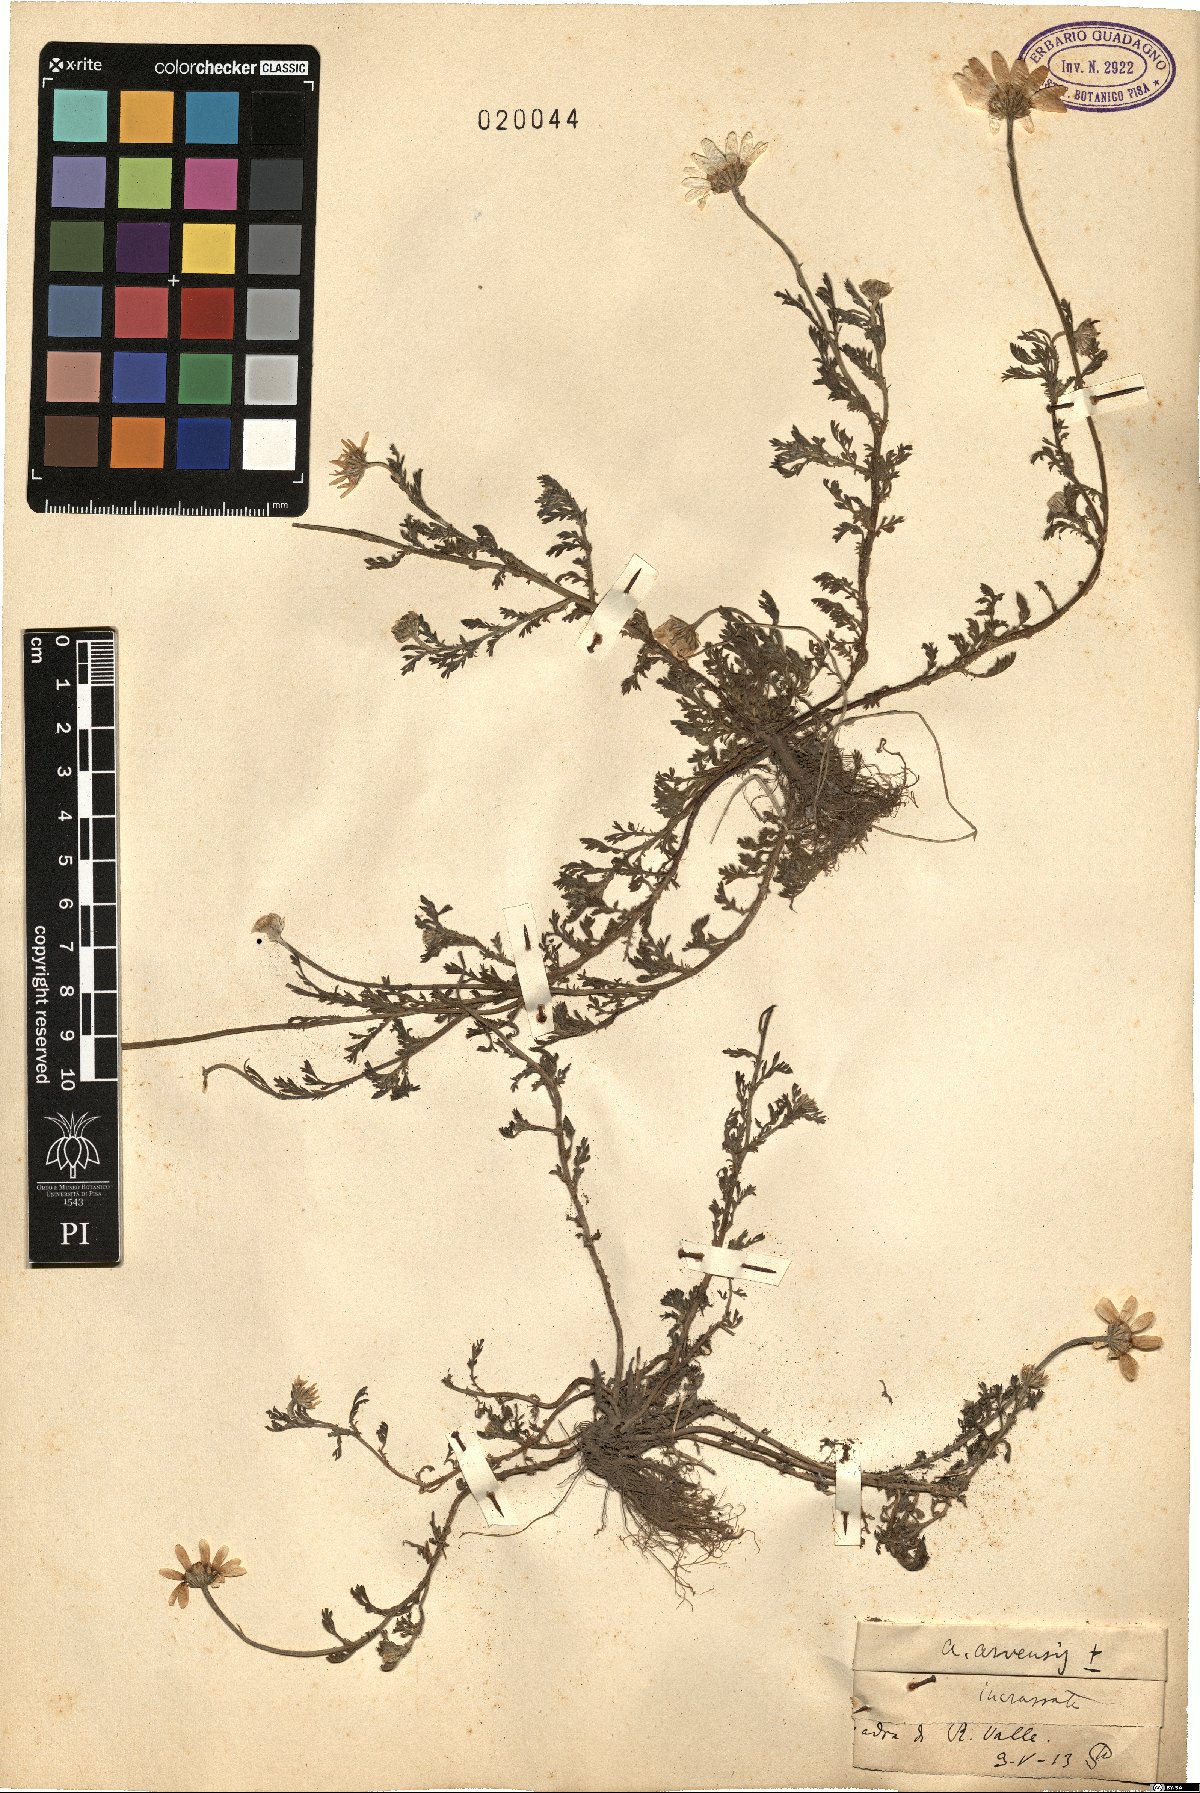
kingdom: Plantae
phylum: Tracheophyta
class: Magnoliopsida
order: Asterales
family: Asteraceae
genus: Anthemis
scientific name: Anthemis arvensis
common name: Corn chamomile
